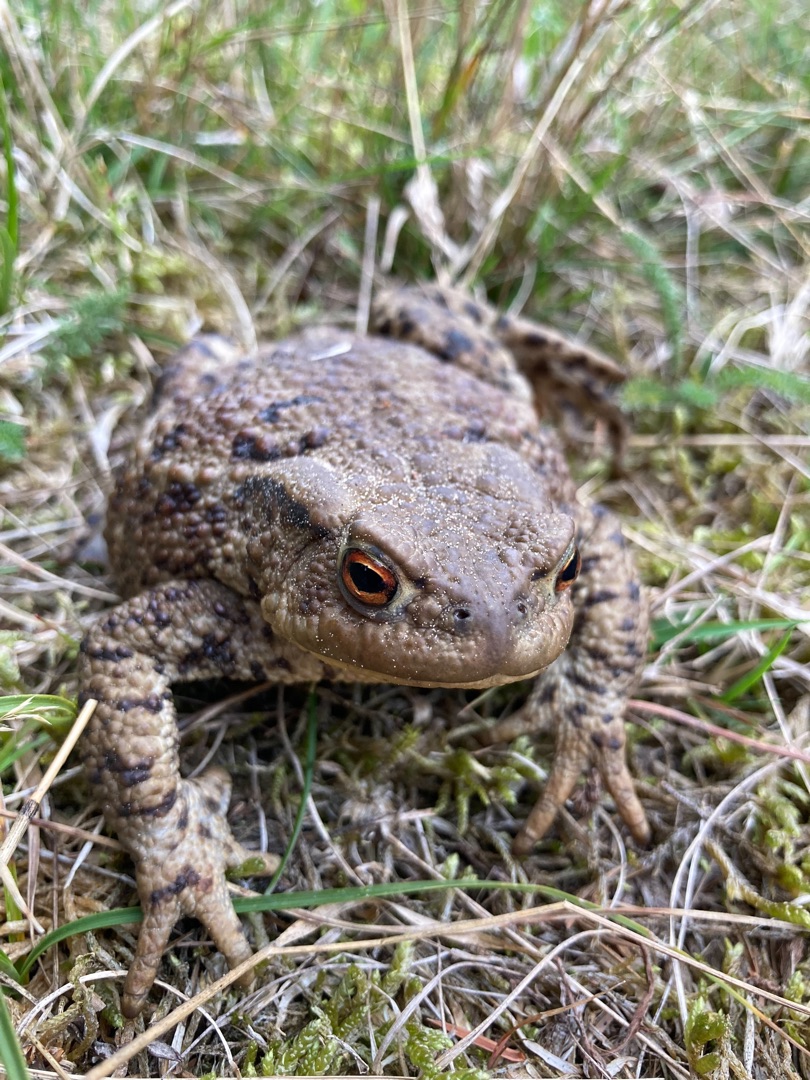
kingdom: Animalia
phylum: Chordata
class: Amphibia
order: Anura
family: Bufonidae
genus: Bufo
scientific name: Bufo bufo
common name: Skrubtudse
